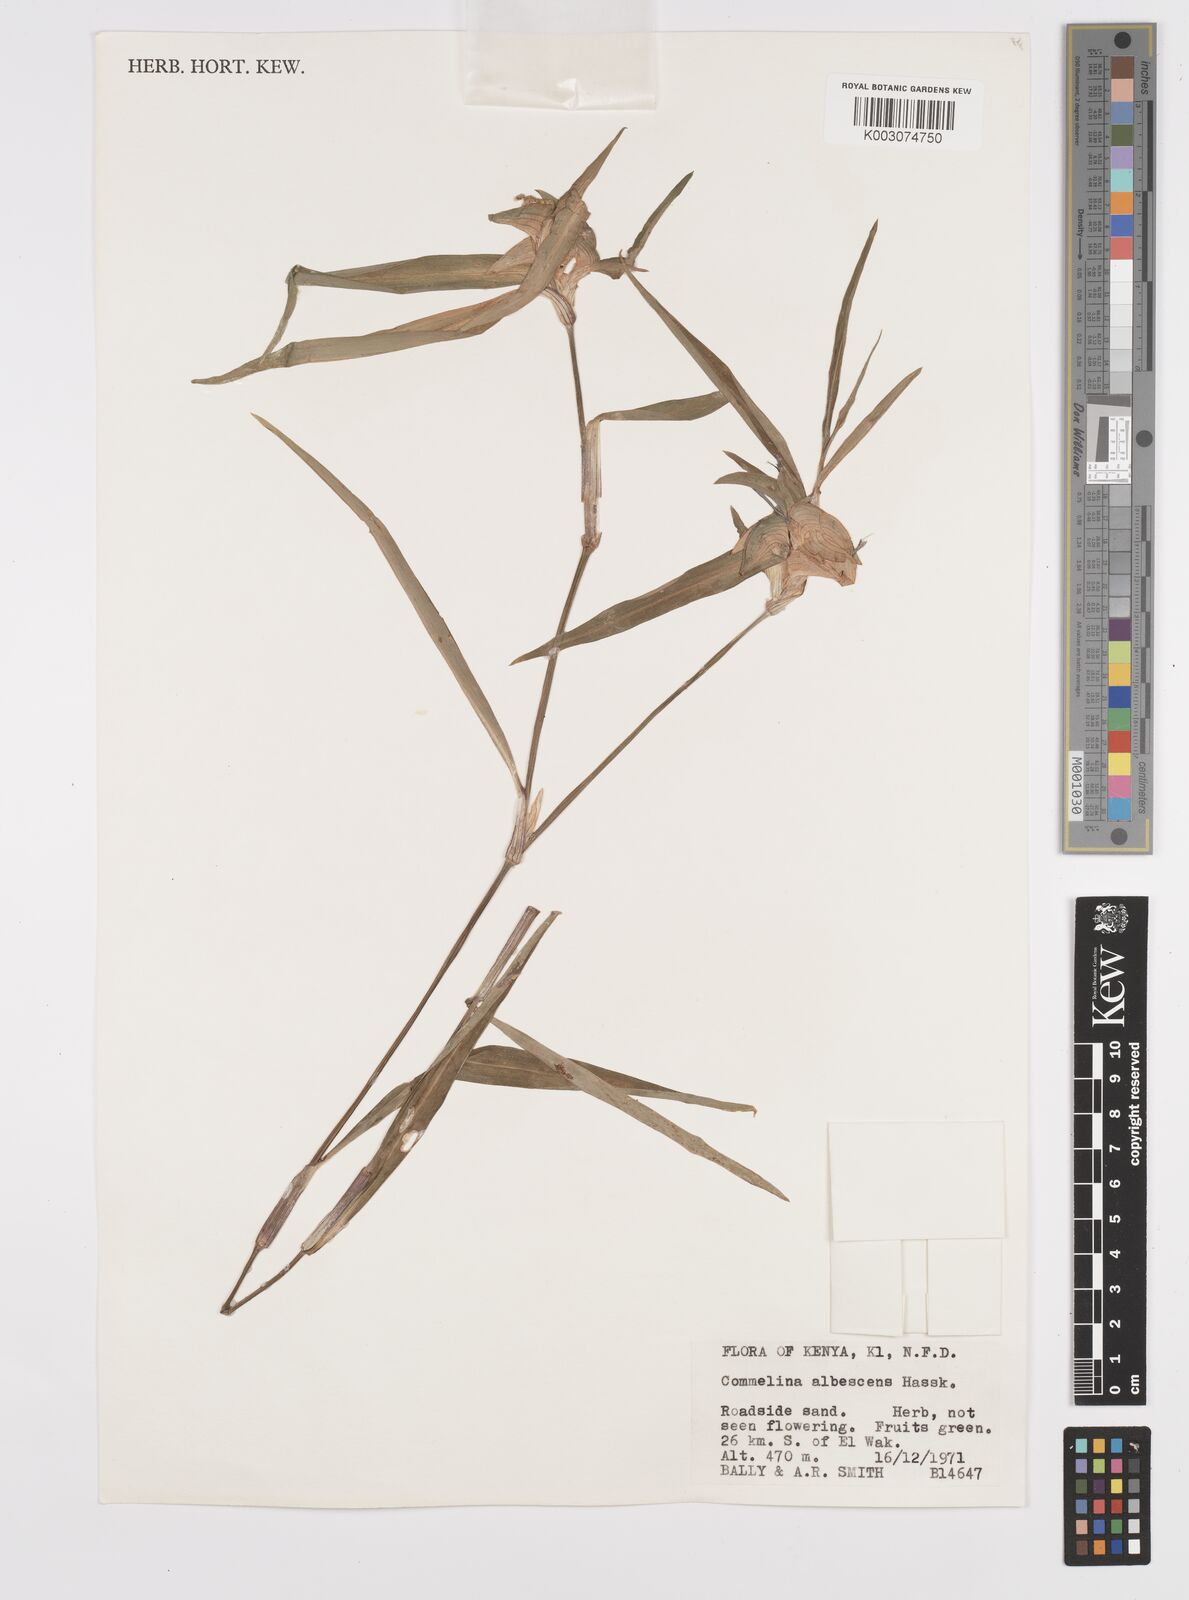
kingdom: Plantae
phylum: Tracheophyta
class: Liliopsida
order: Commelinales
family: Commelinaceae
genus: Commelina
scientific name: Commelina albescens
